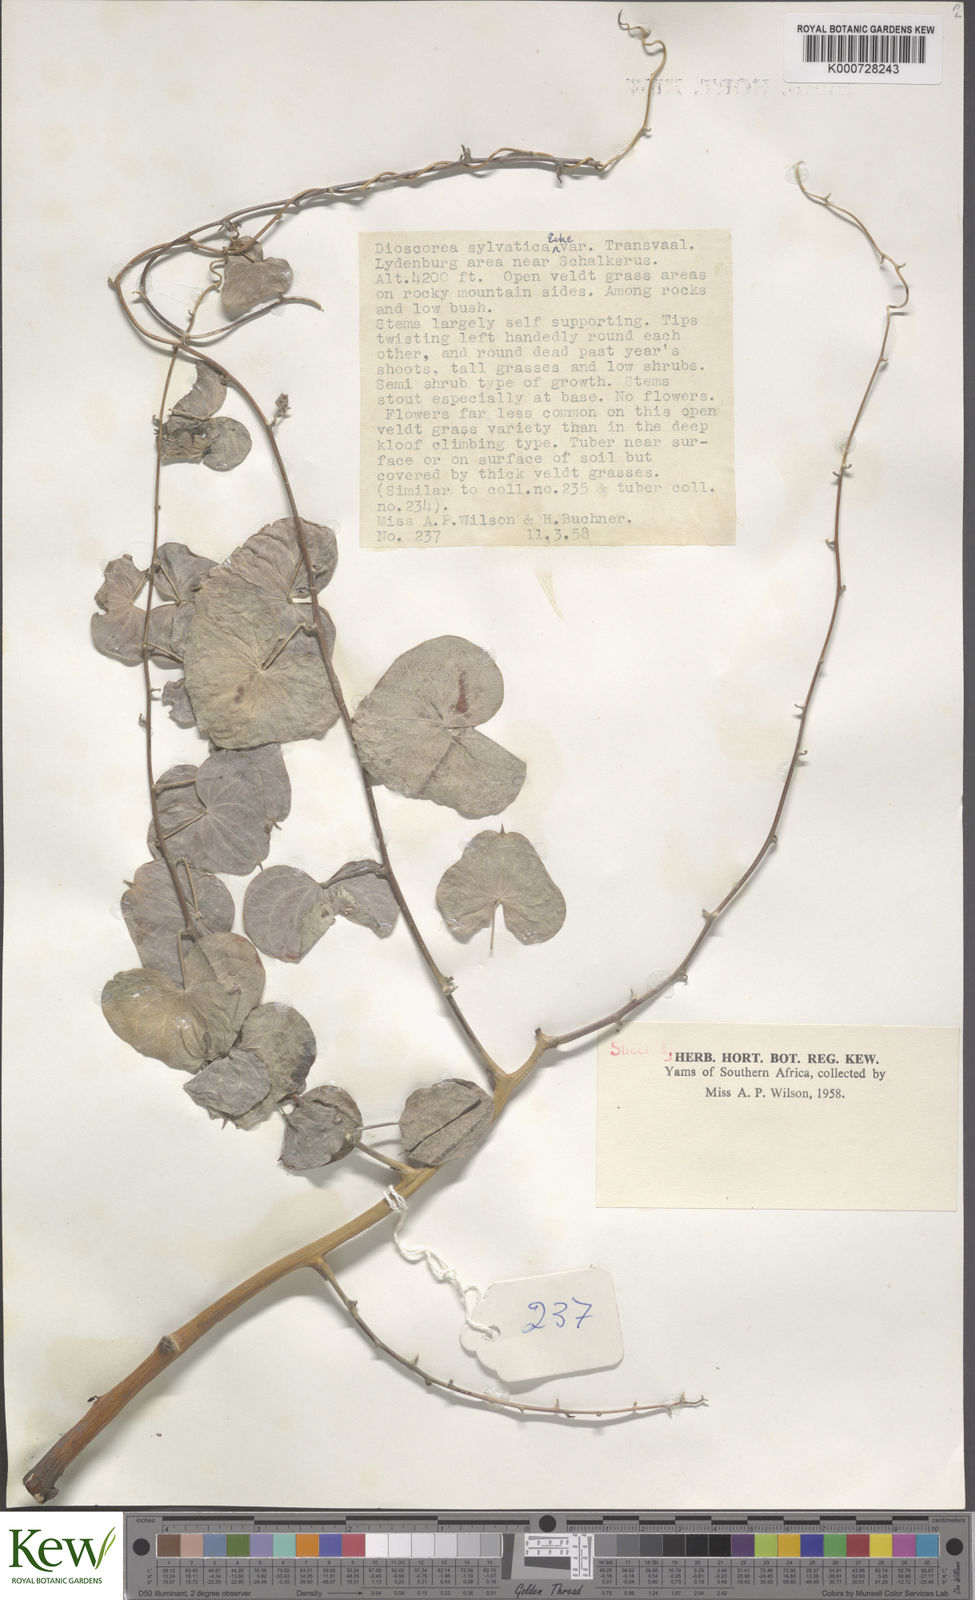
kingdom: Plantae
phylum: Tracheophyta
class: Liliopsida
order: Dioscoreales
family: Dioscoreaceae
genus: Dioscorea
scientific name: Dioscorea sylvatica
